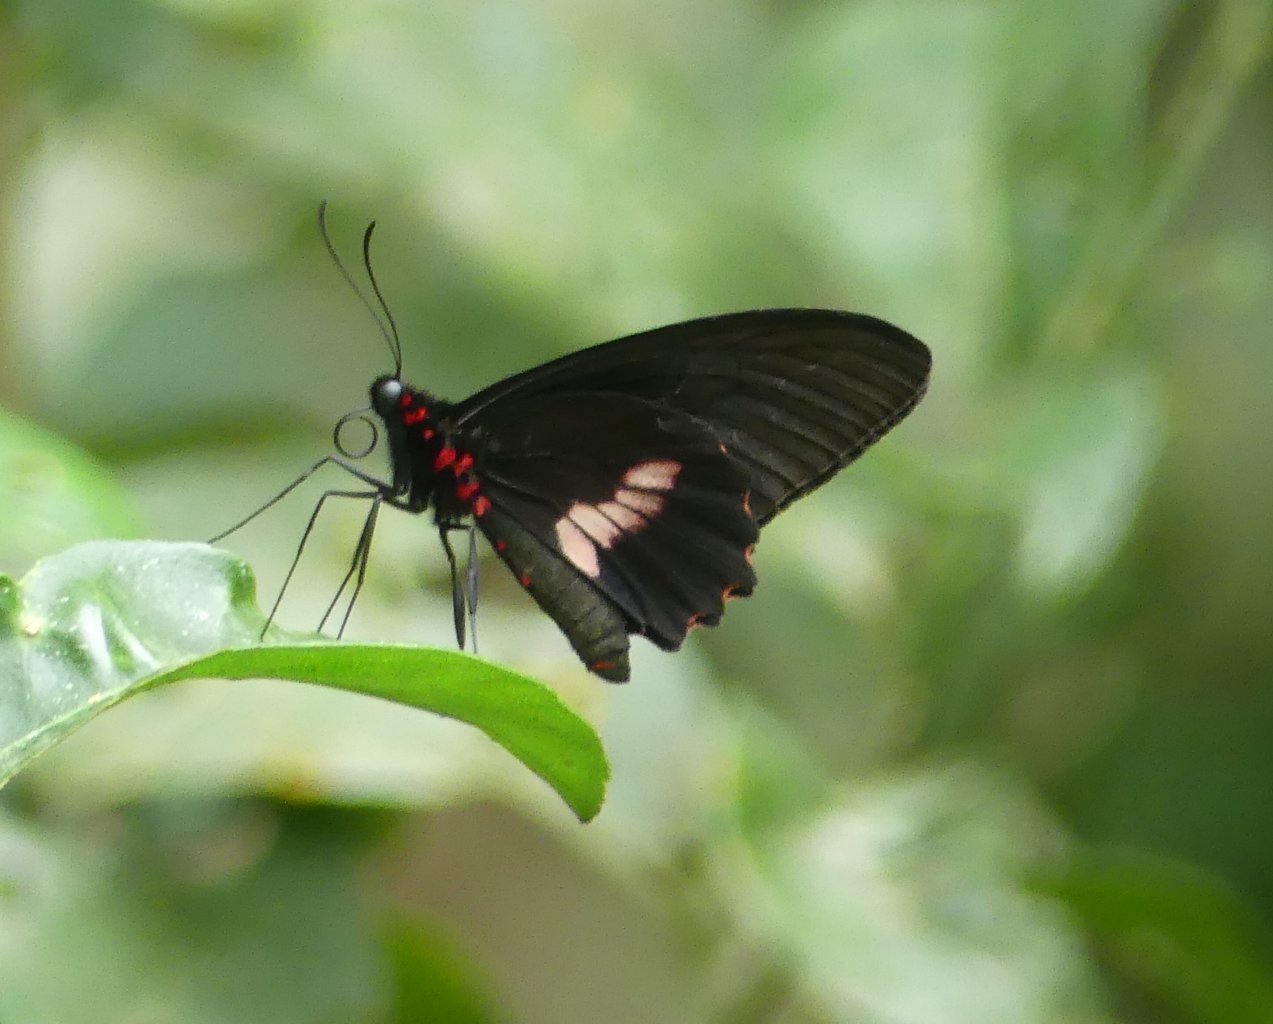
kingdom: Animalia
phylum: Arthropoda
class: Insecta
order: Lepidoptera
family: Papilionidae
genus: Parides
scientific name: Parides eurimedes
